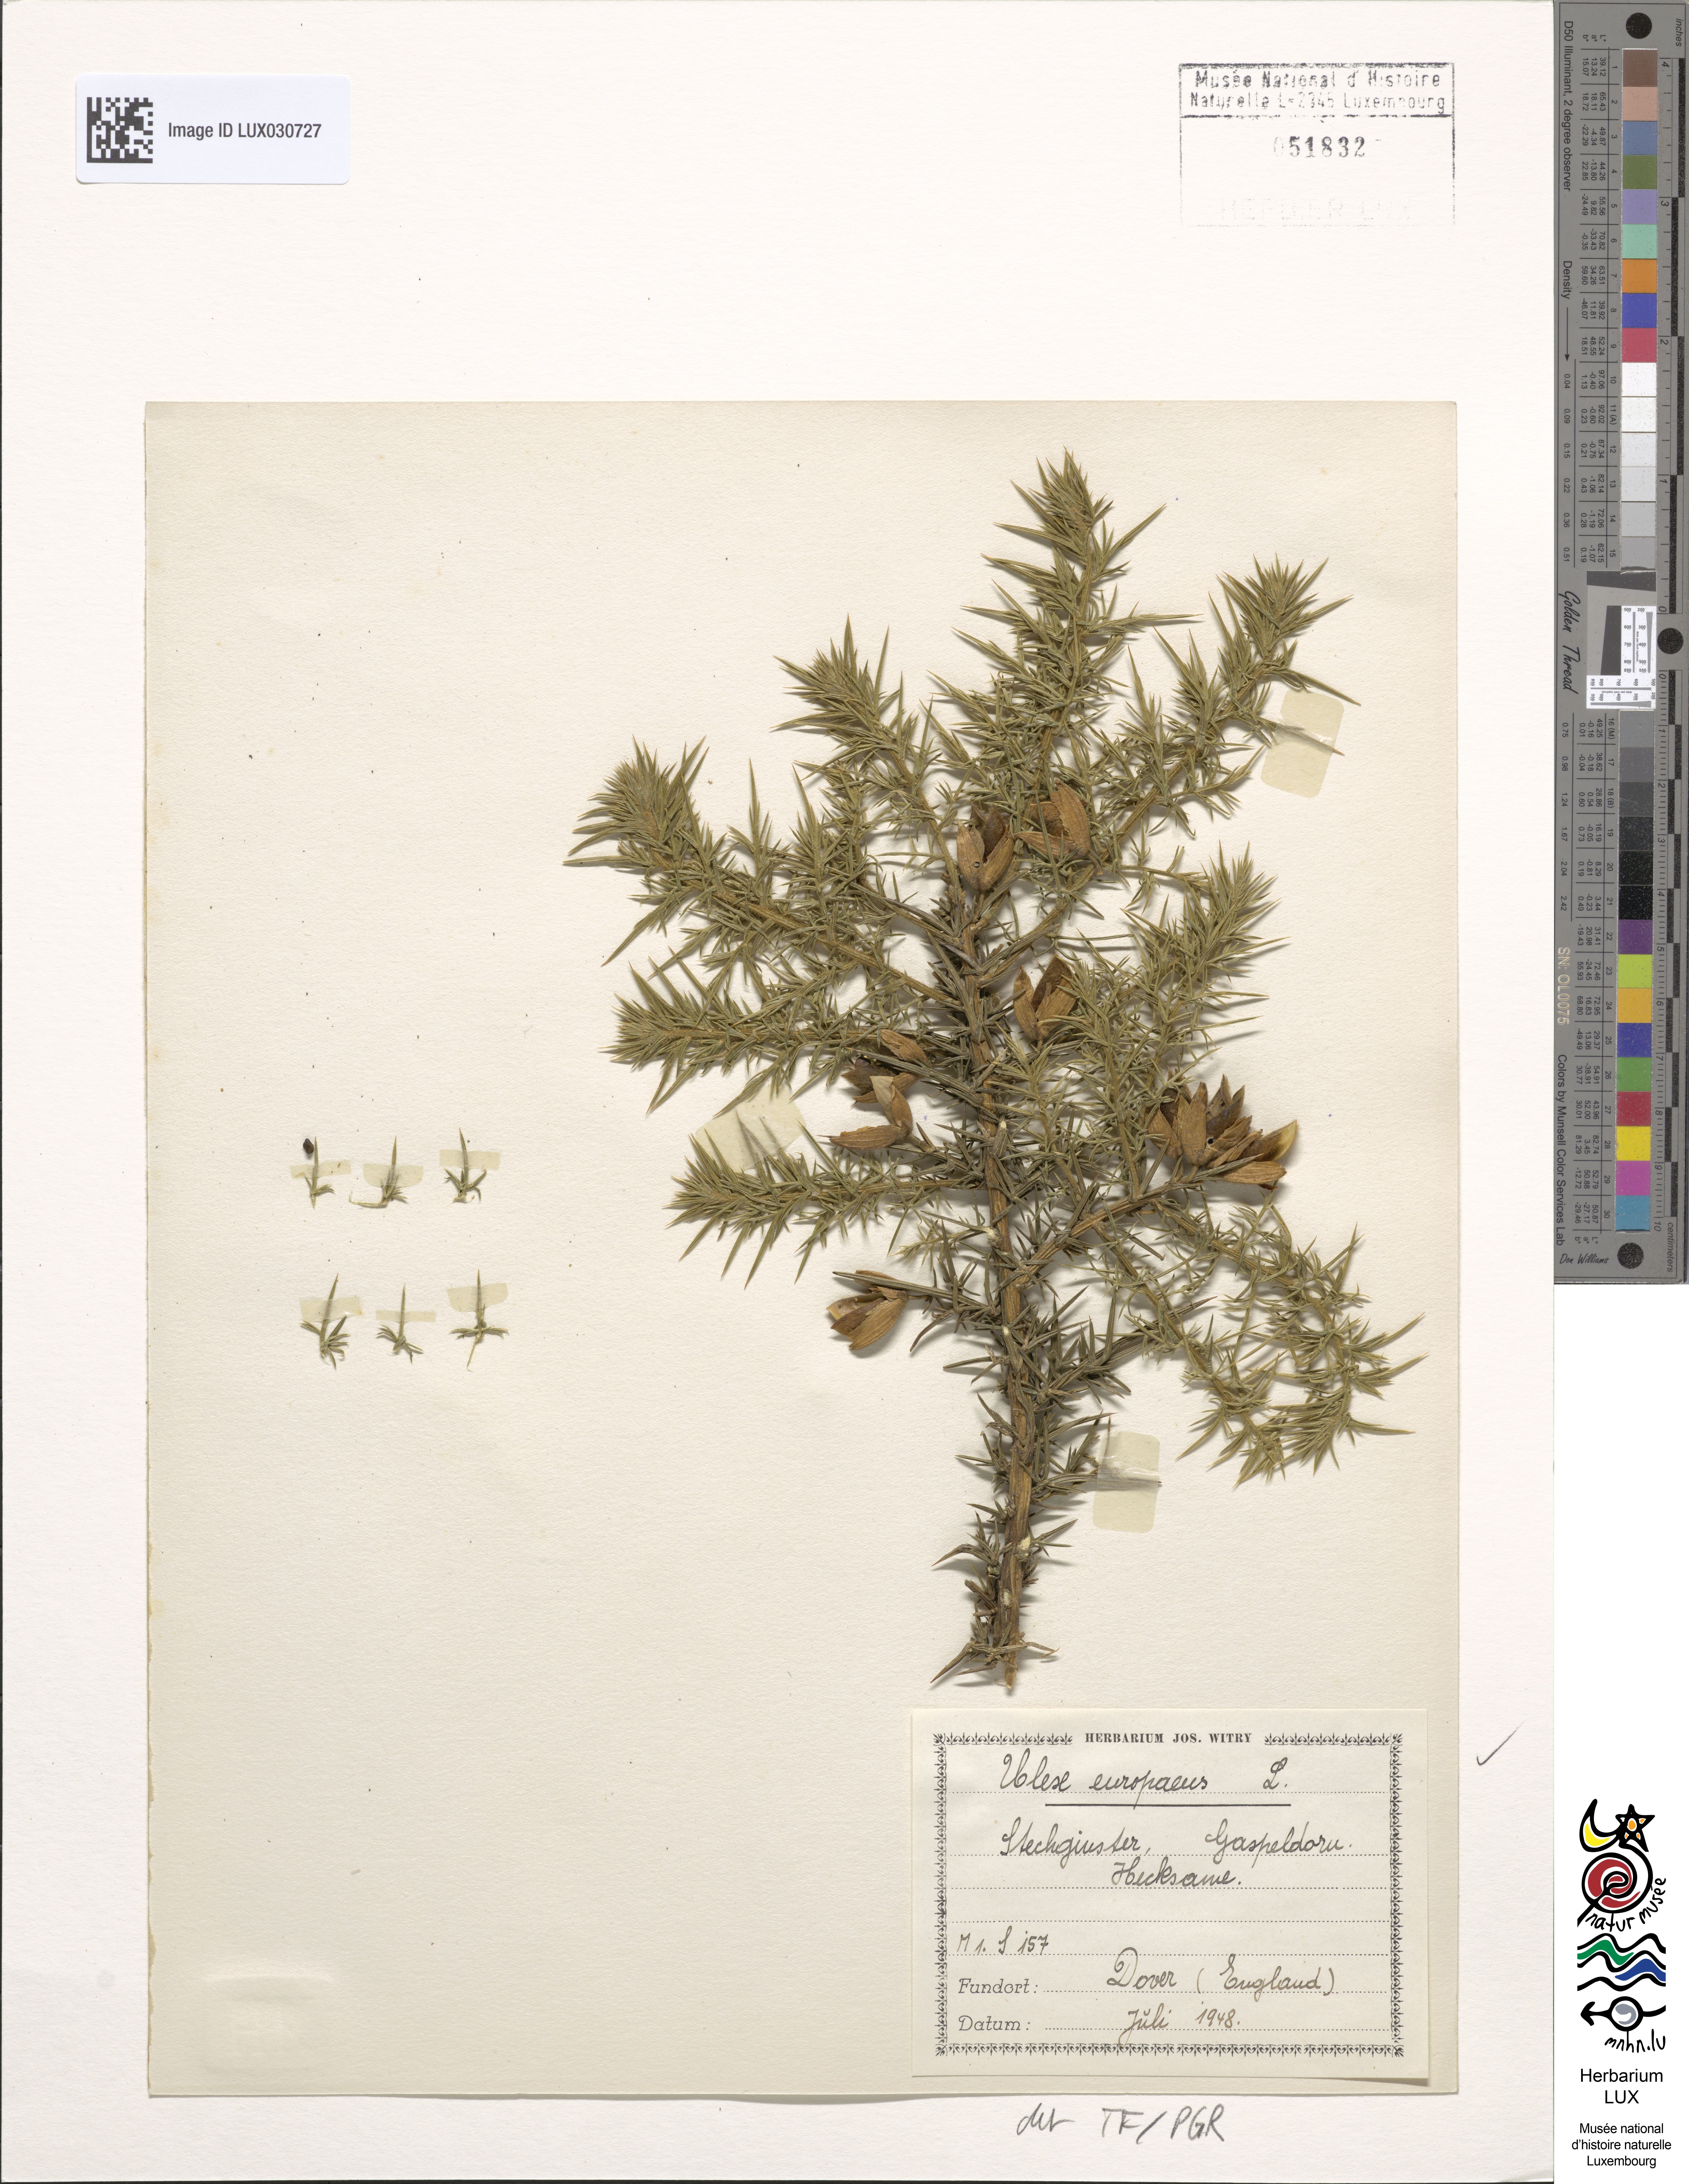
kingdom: Plantae
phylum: Tracheophyta
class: Magnoliopsida
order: Fabales
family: Fabaceae
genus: Ulex
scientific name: Ulex europaeus
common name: Common gorse
